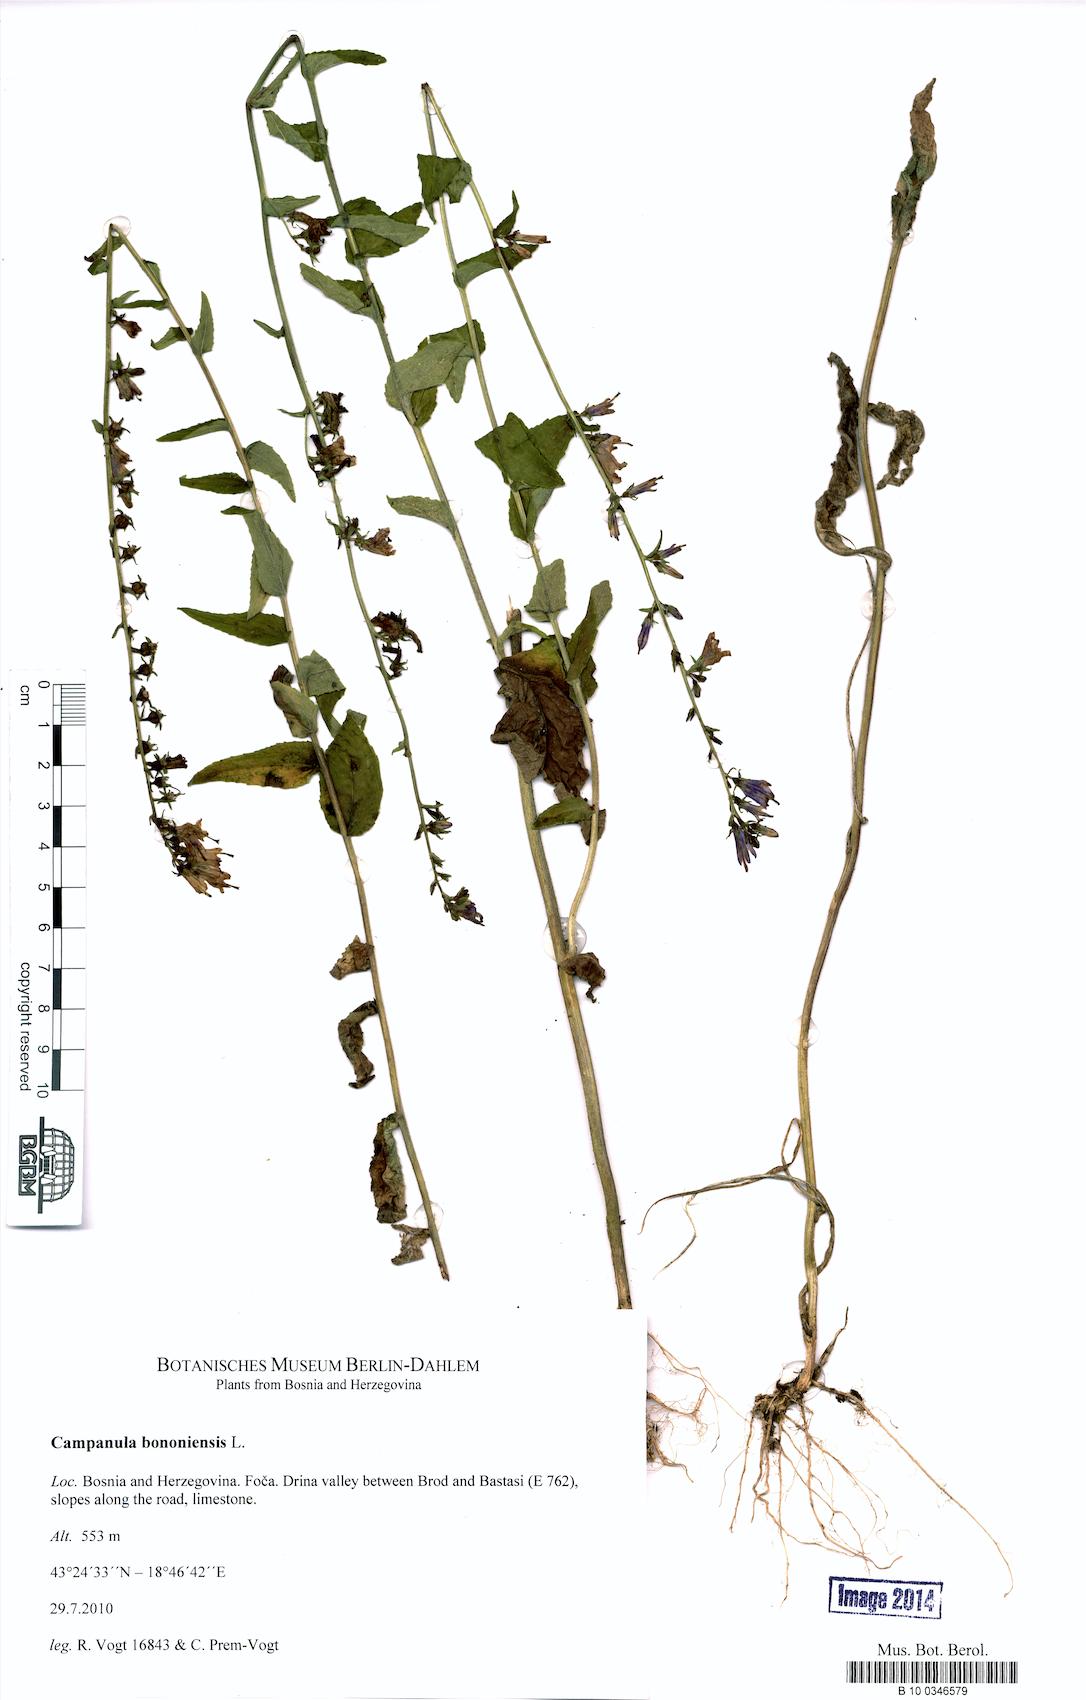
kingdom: Plantae
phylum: Tracheophyta
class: Magnoliopsida
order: Asterales
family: Campanulaceae
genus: Campanula
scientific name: Campanula bononiensis
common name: Pale bellflower
